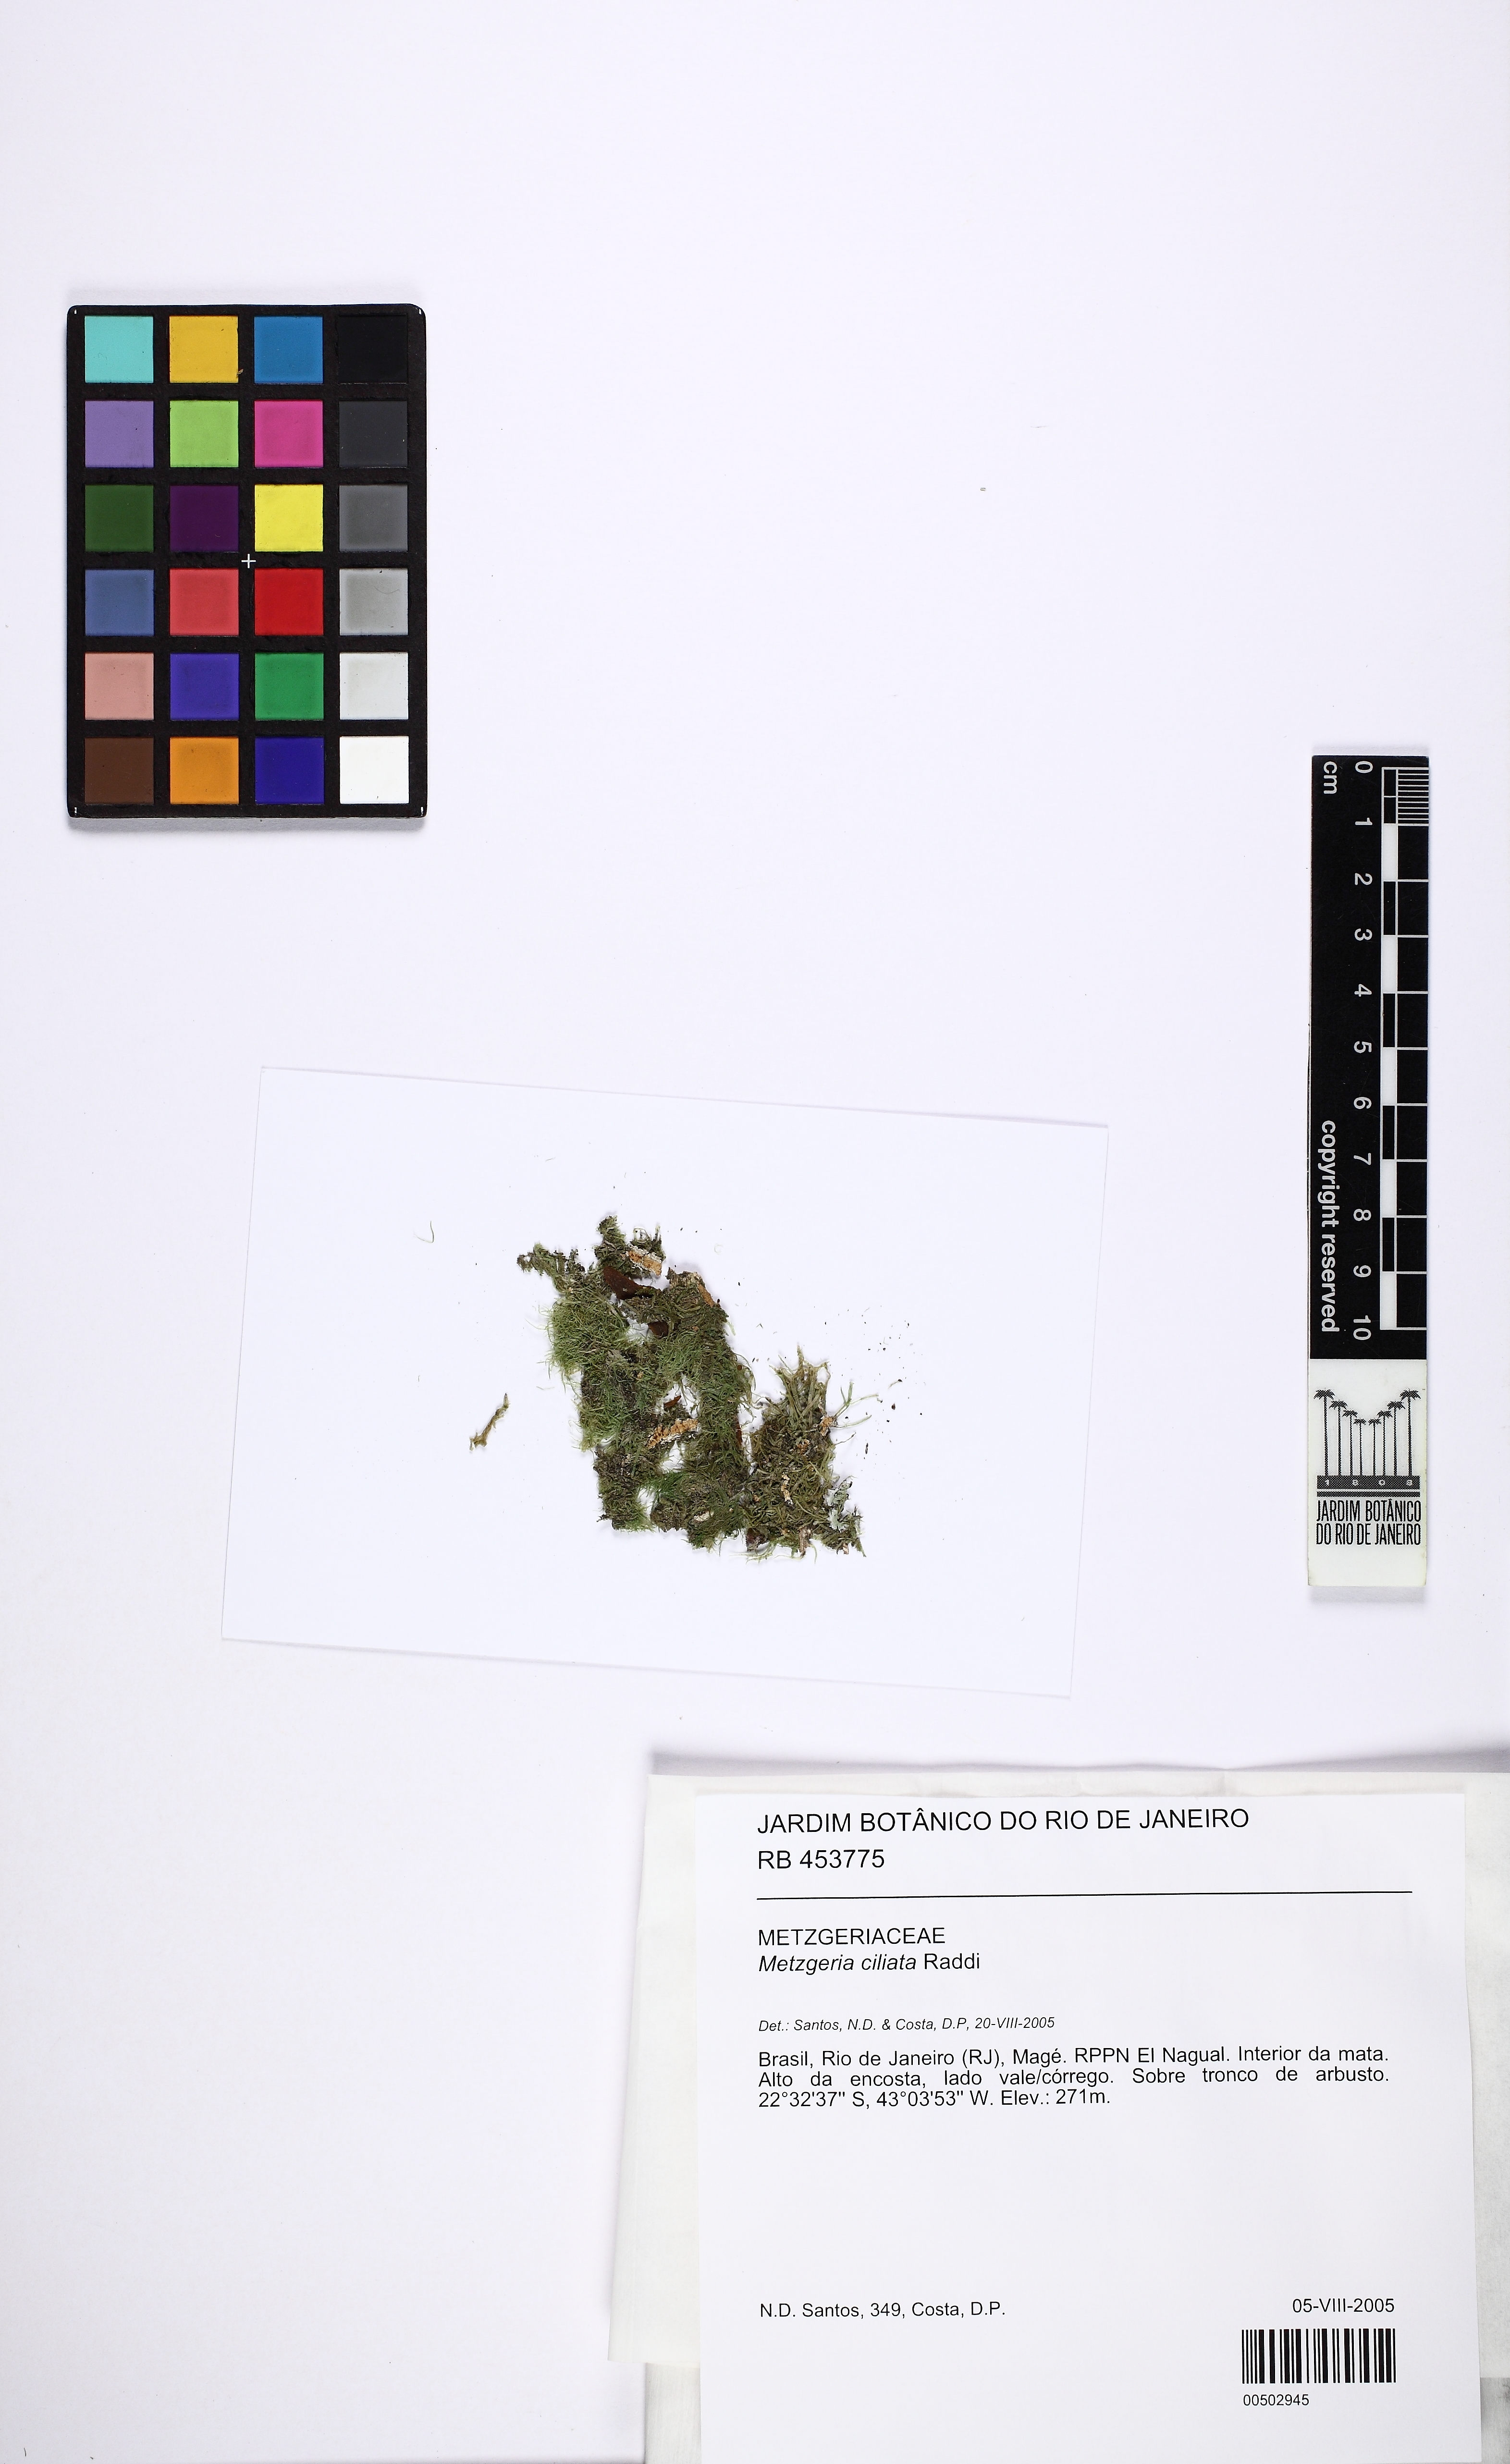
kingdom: Plantae
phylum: Marchantiophyta
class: Jungermanniopsida
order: Metzgeriales
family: Metzgeriaceae
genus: Metzgeria
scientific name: Metzgeria ciliata
